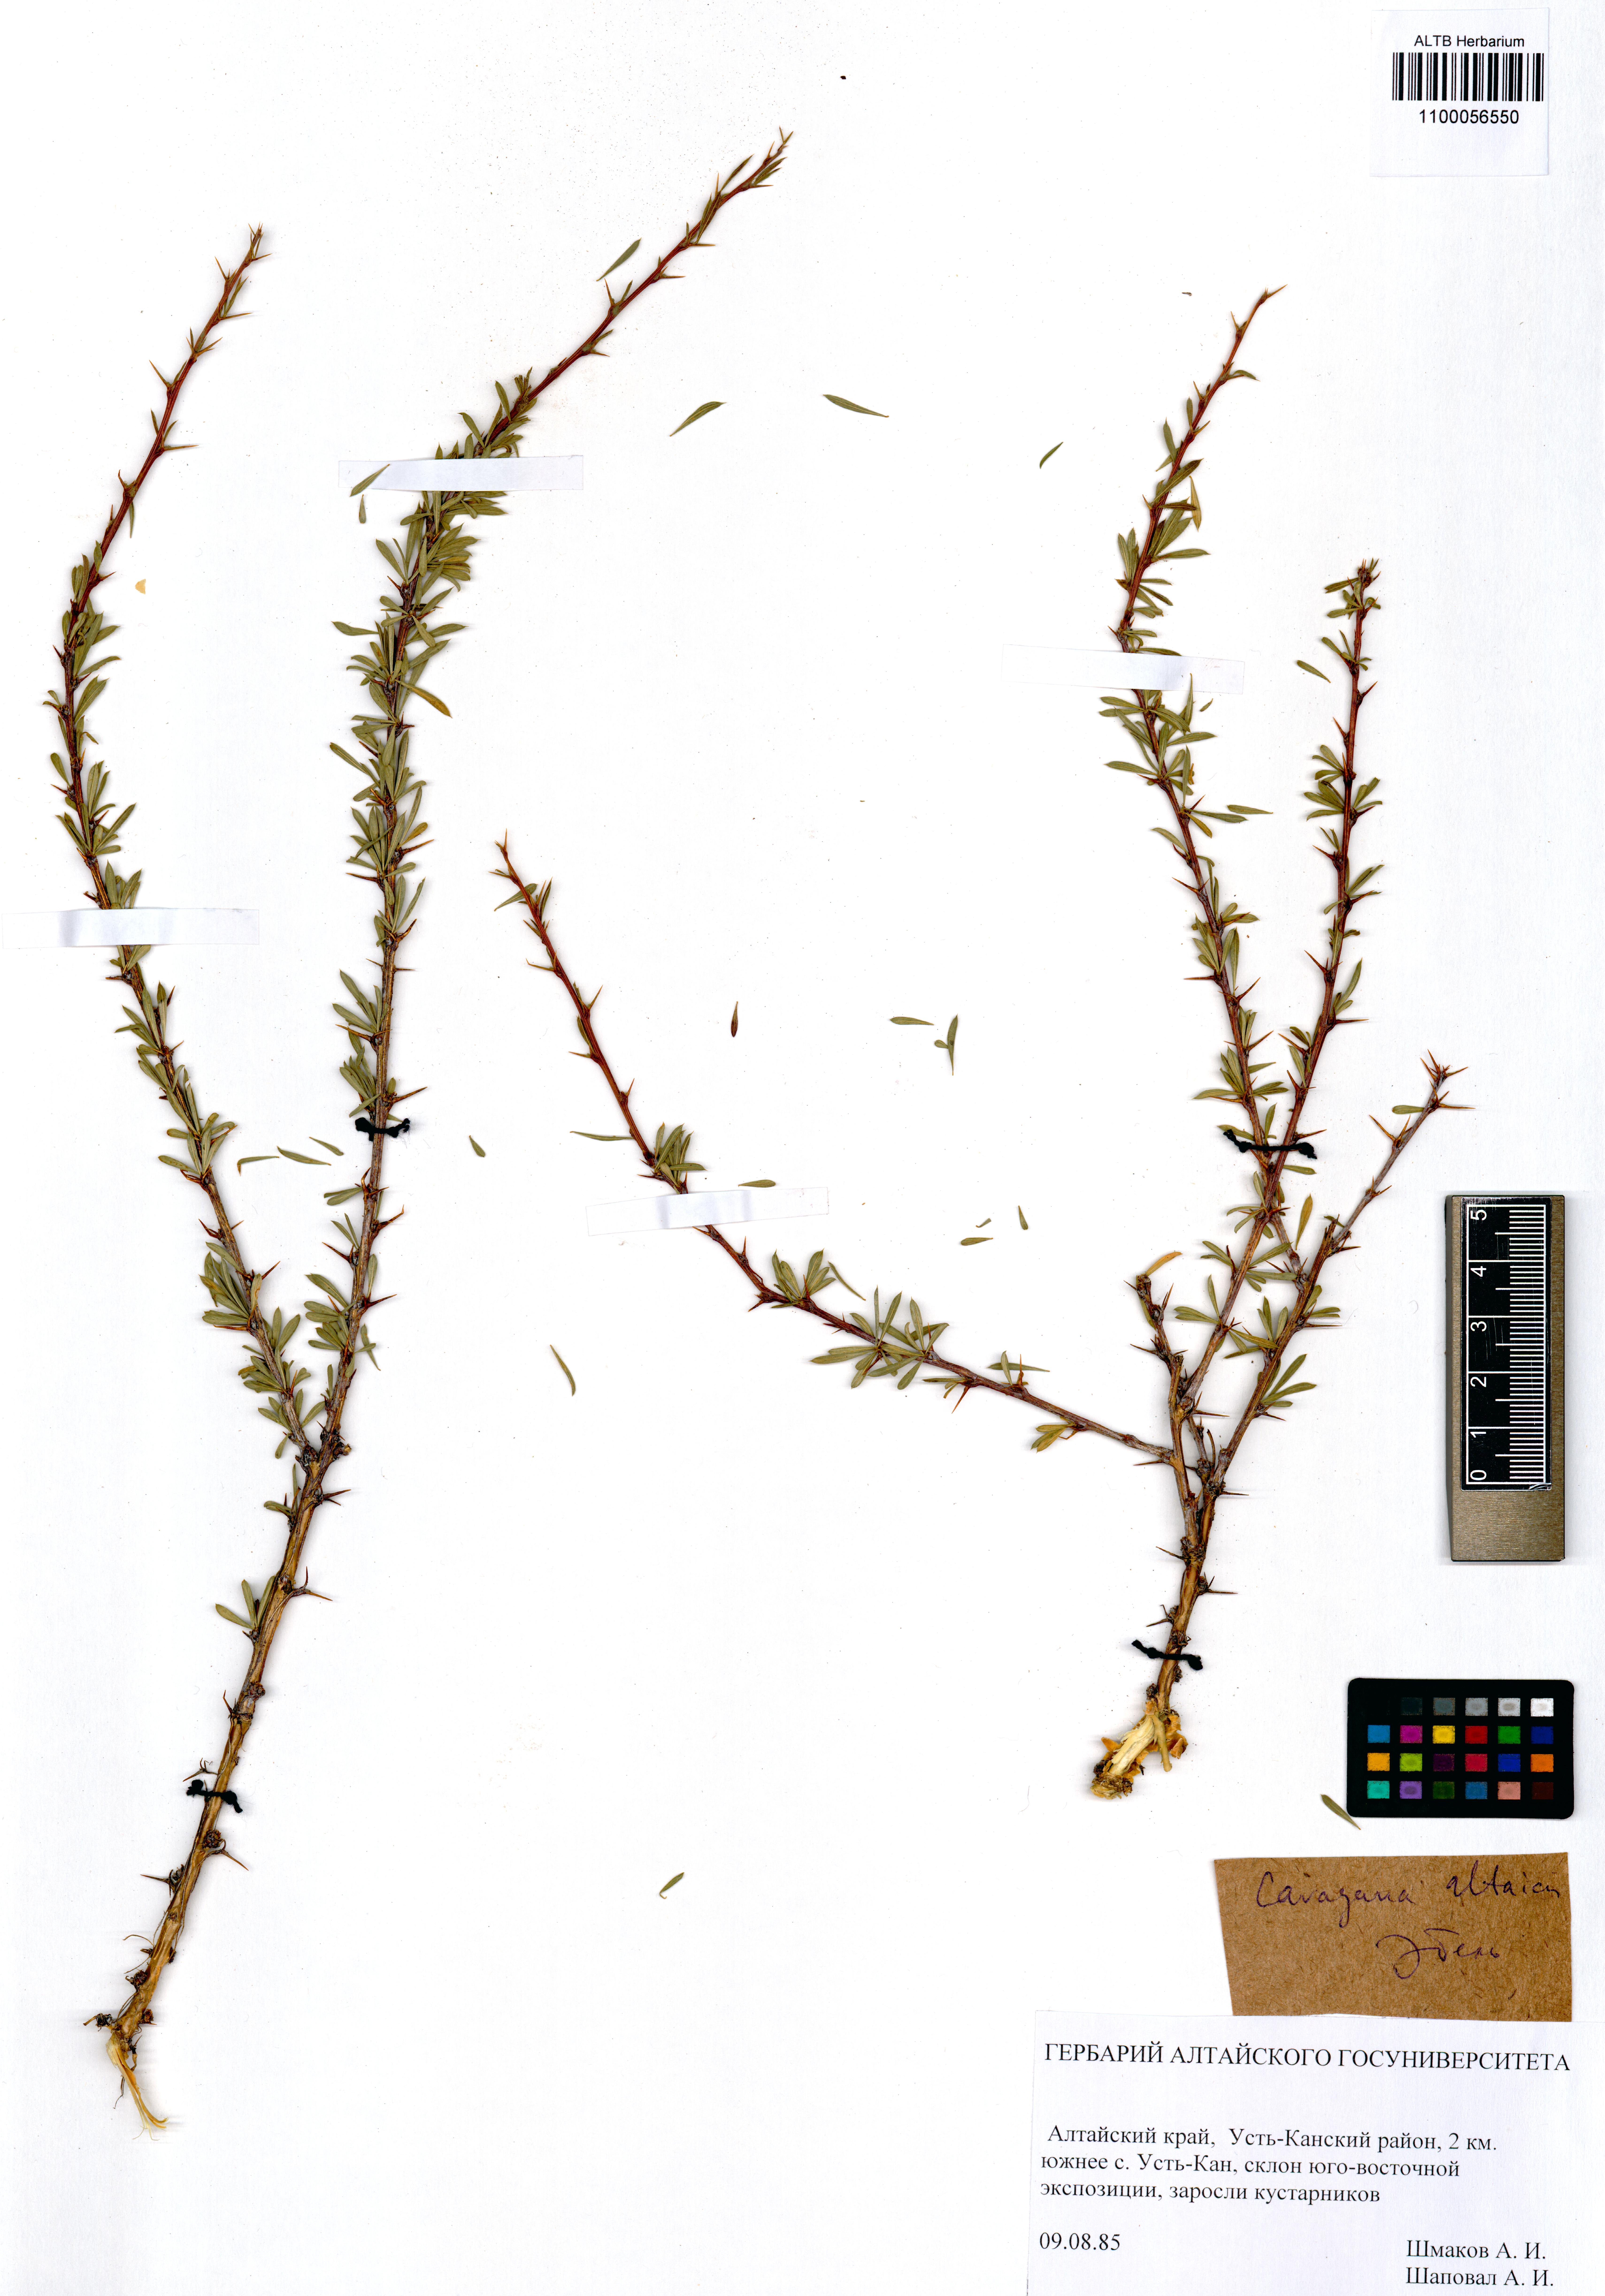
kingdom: Plantae
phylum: Tracheophyta
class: Magnoliopsida
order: Fabales
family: Fabaceae
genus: Caragana
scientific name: Caragana pygmaea
